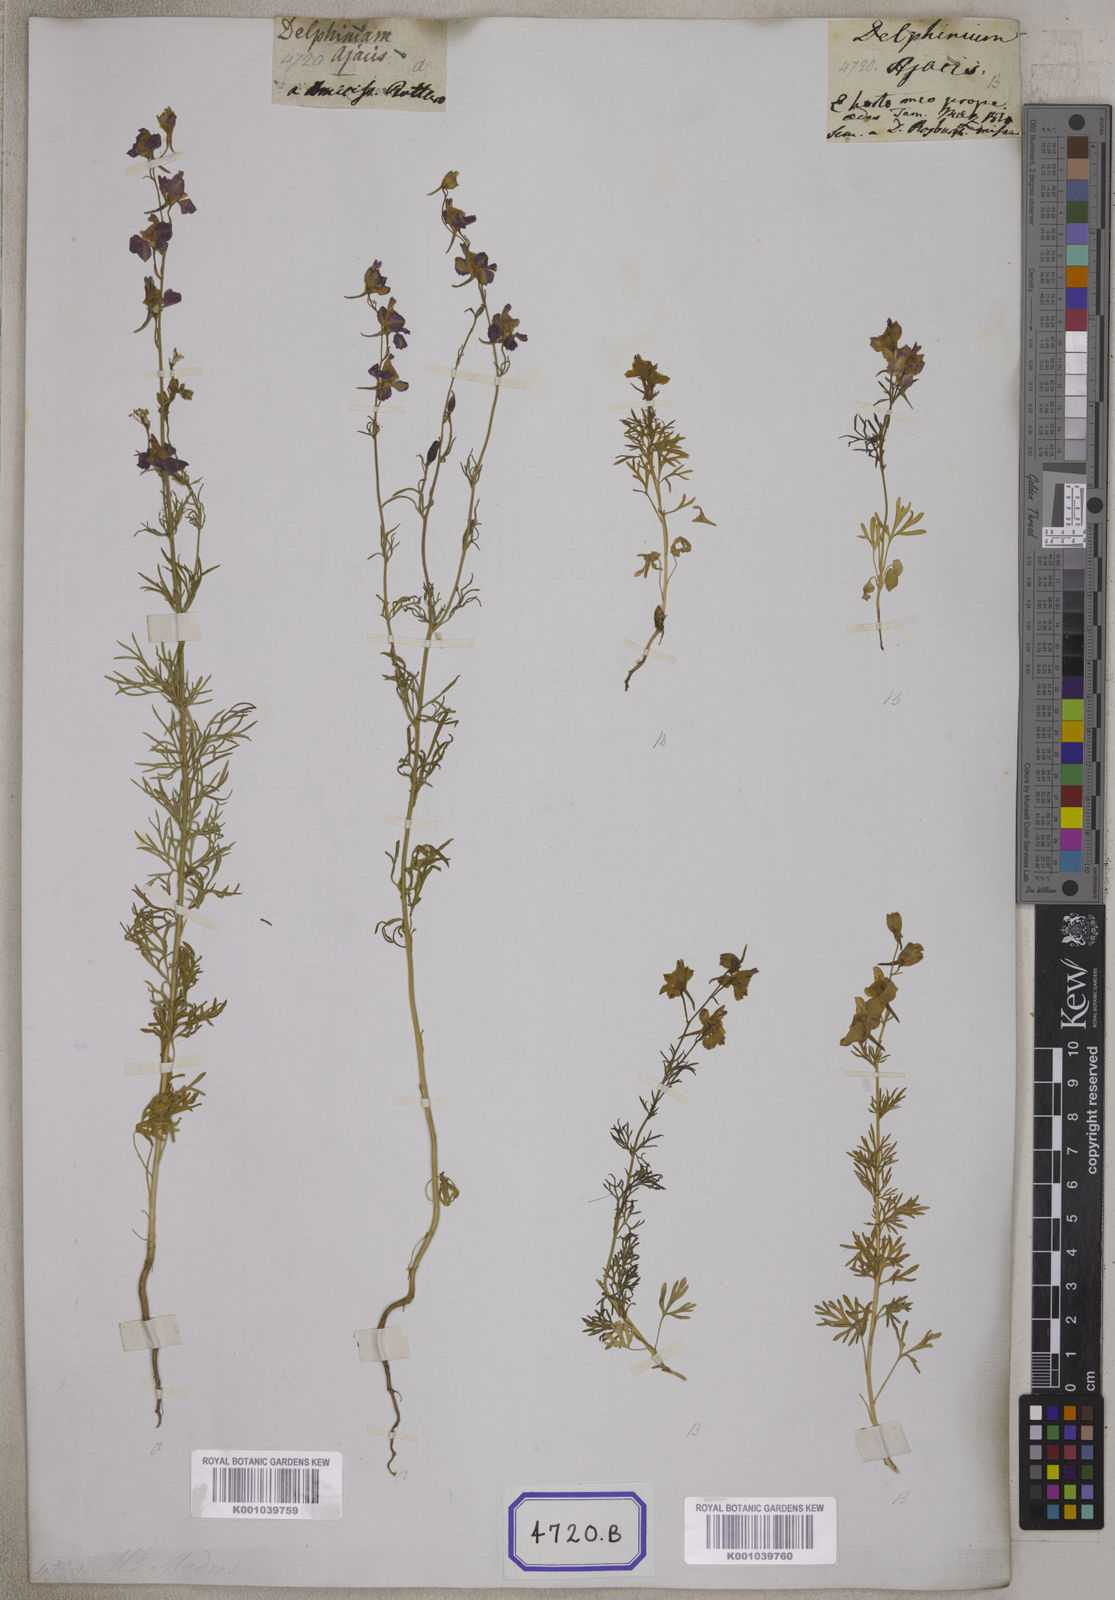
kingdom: Plantae
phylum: Tracheophyta
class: Magnoliopsida
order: Ranunculales
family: Ranunculaceae
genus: Delphinium
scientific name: Delphinium ajacis
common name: Doubtful knight's-spur
